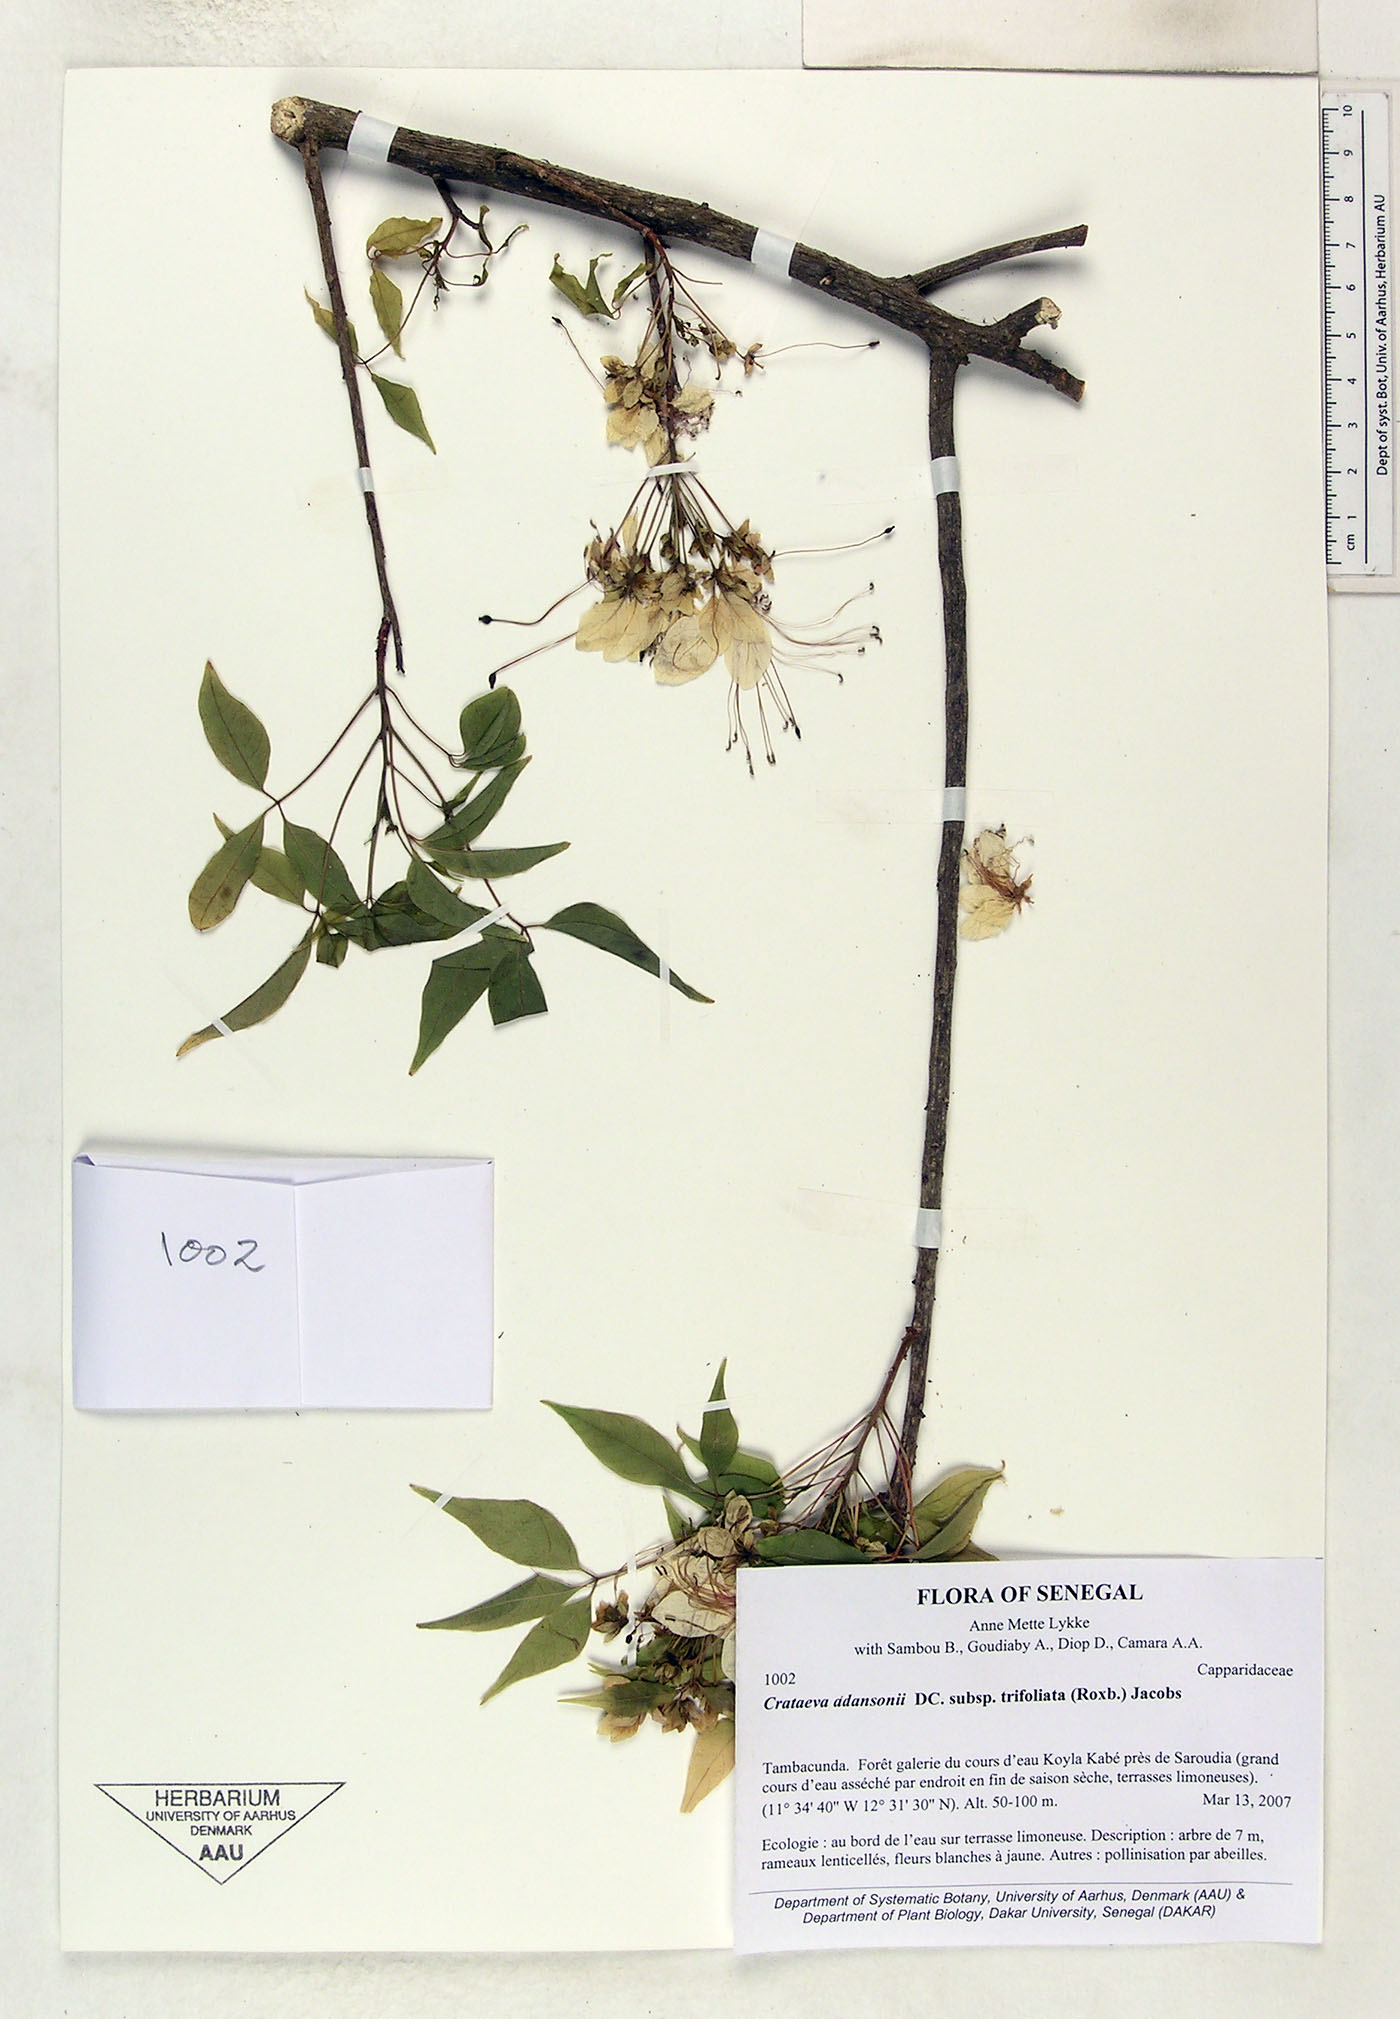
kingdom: Plantae
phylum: Tracheophyta
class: Magnoliopsida
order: Brassicales
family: Capparaceae
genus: Crateva
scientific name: Crateva
